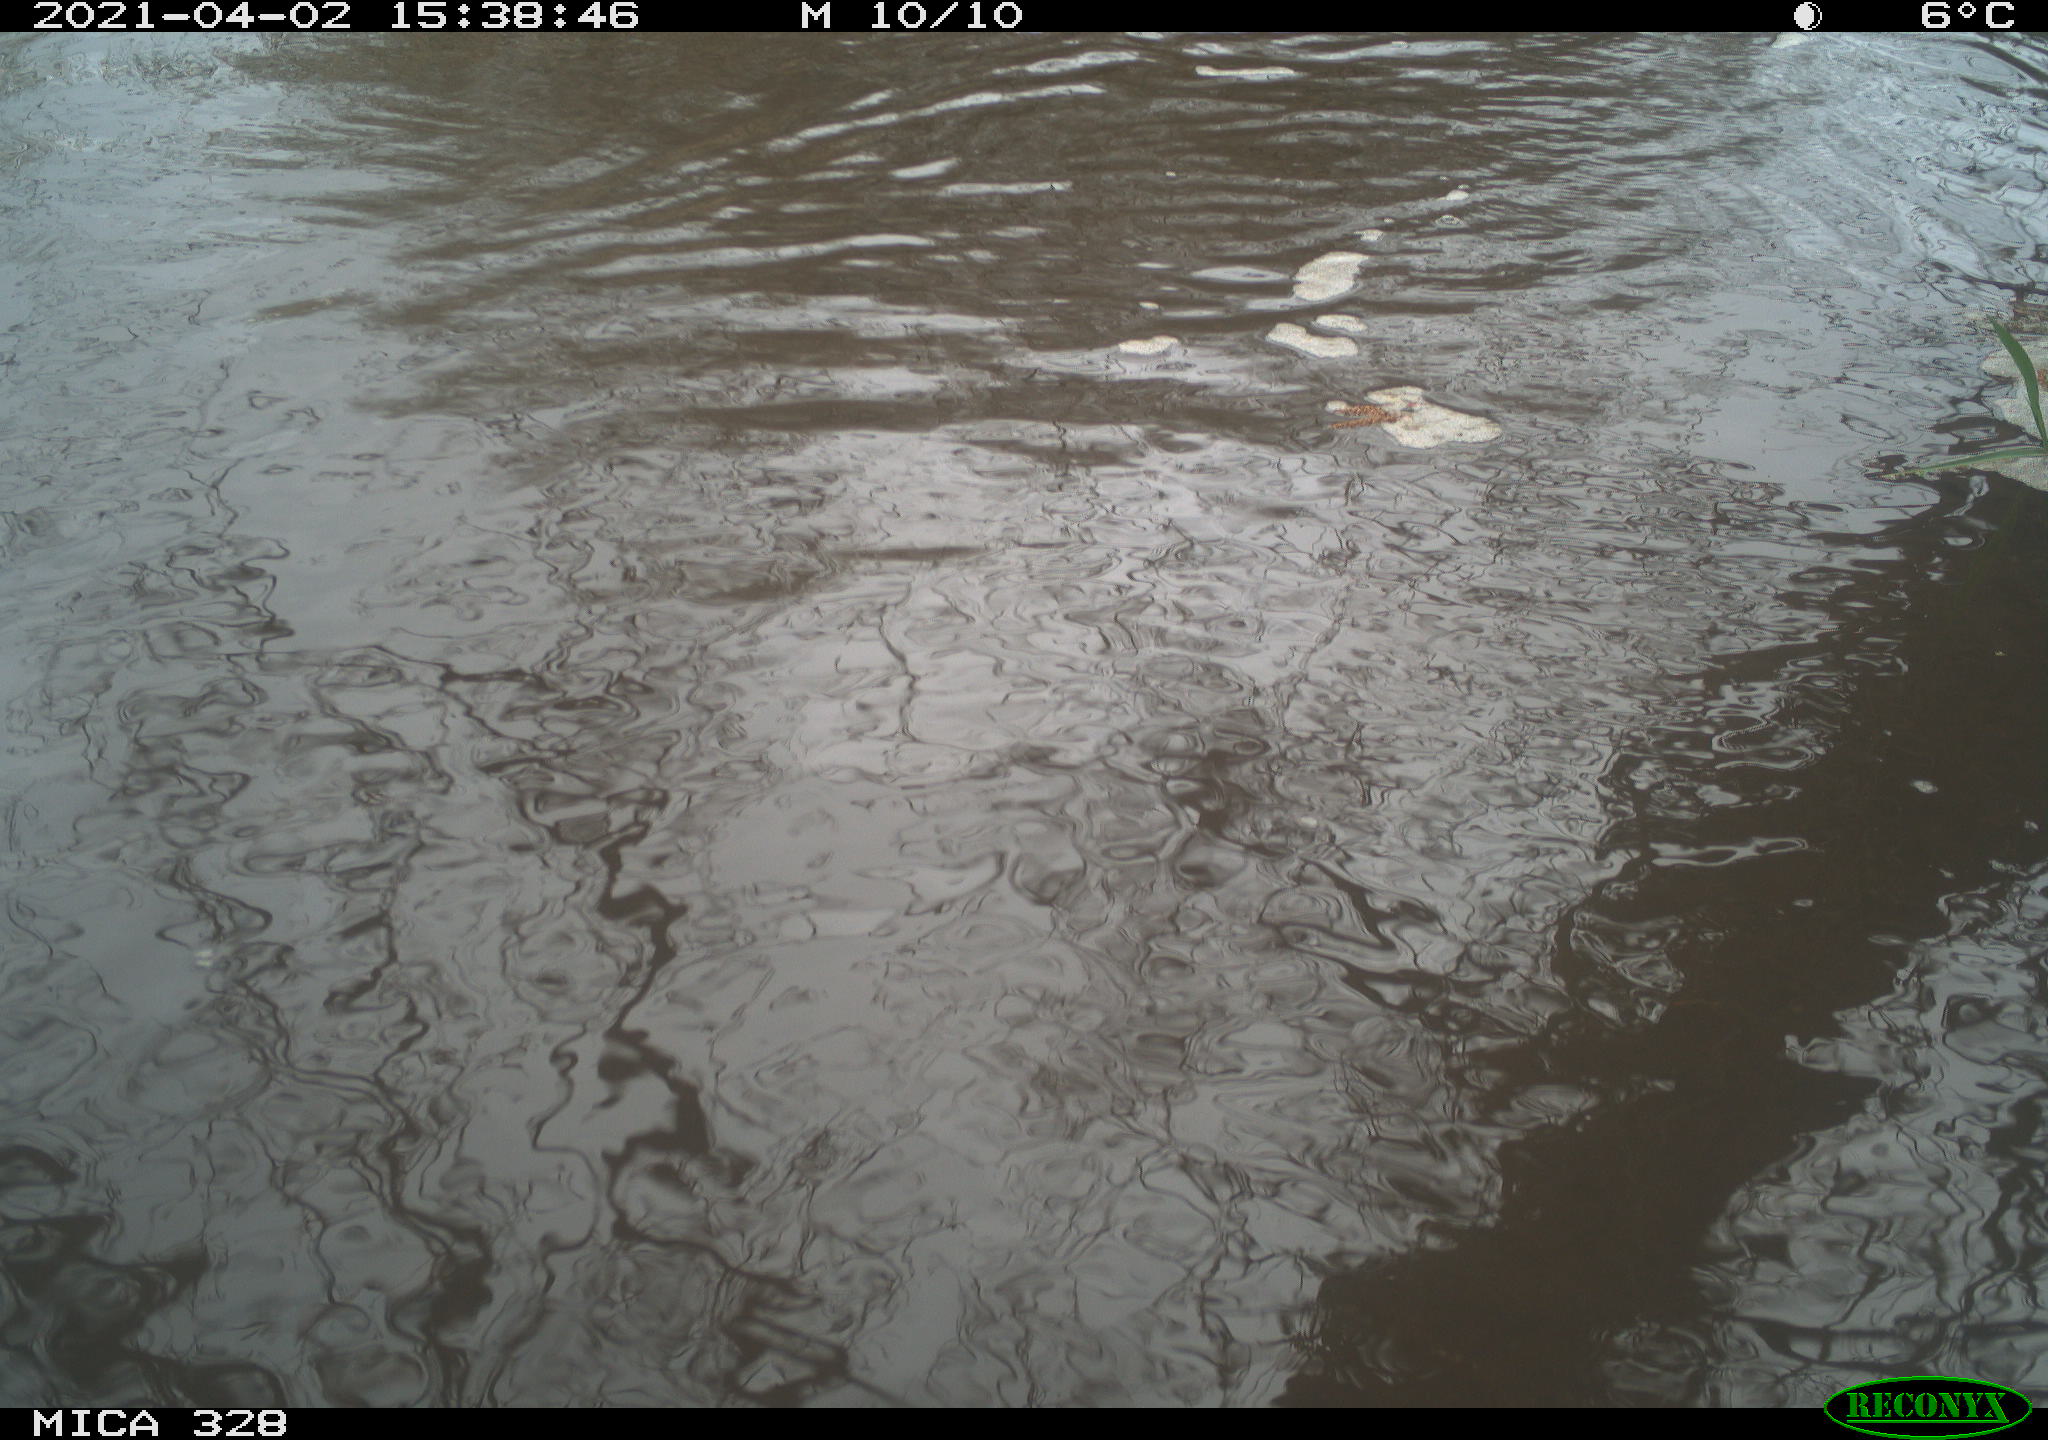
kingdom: Animalia
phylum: Chordata
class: Mammalia
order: Rodentia
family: Cricetidae
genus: Ondatra
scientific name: Ondatra zibethicus
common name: Muskrat
